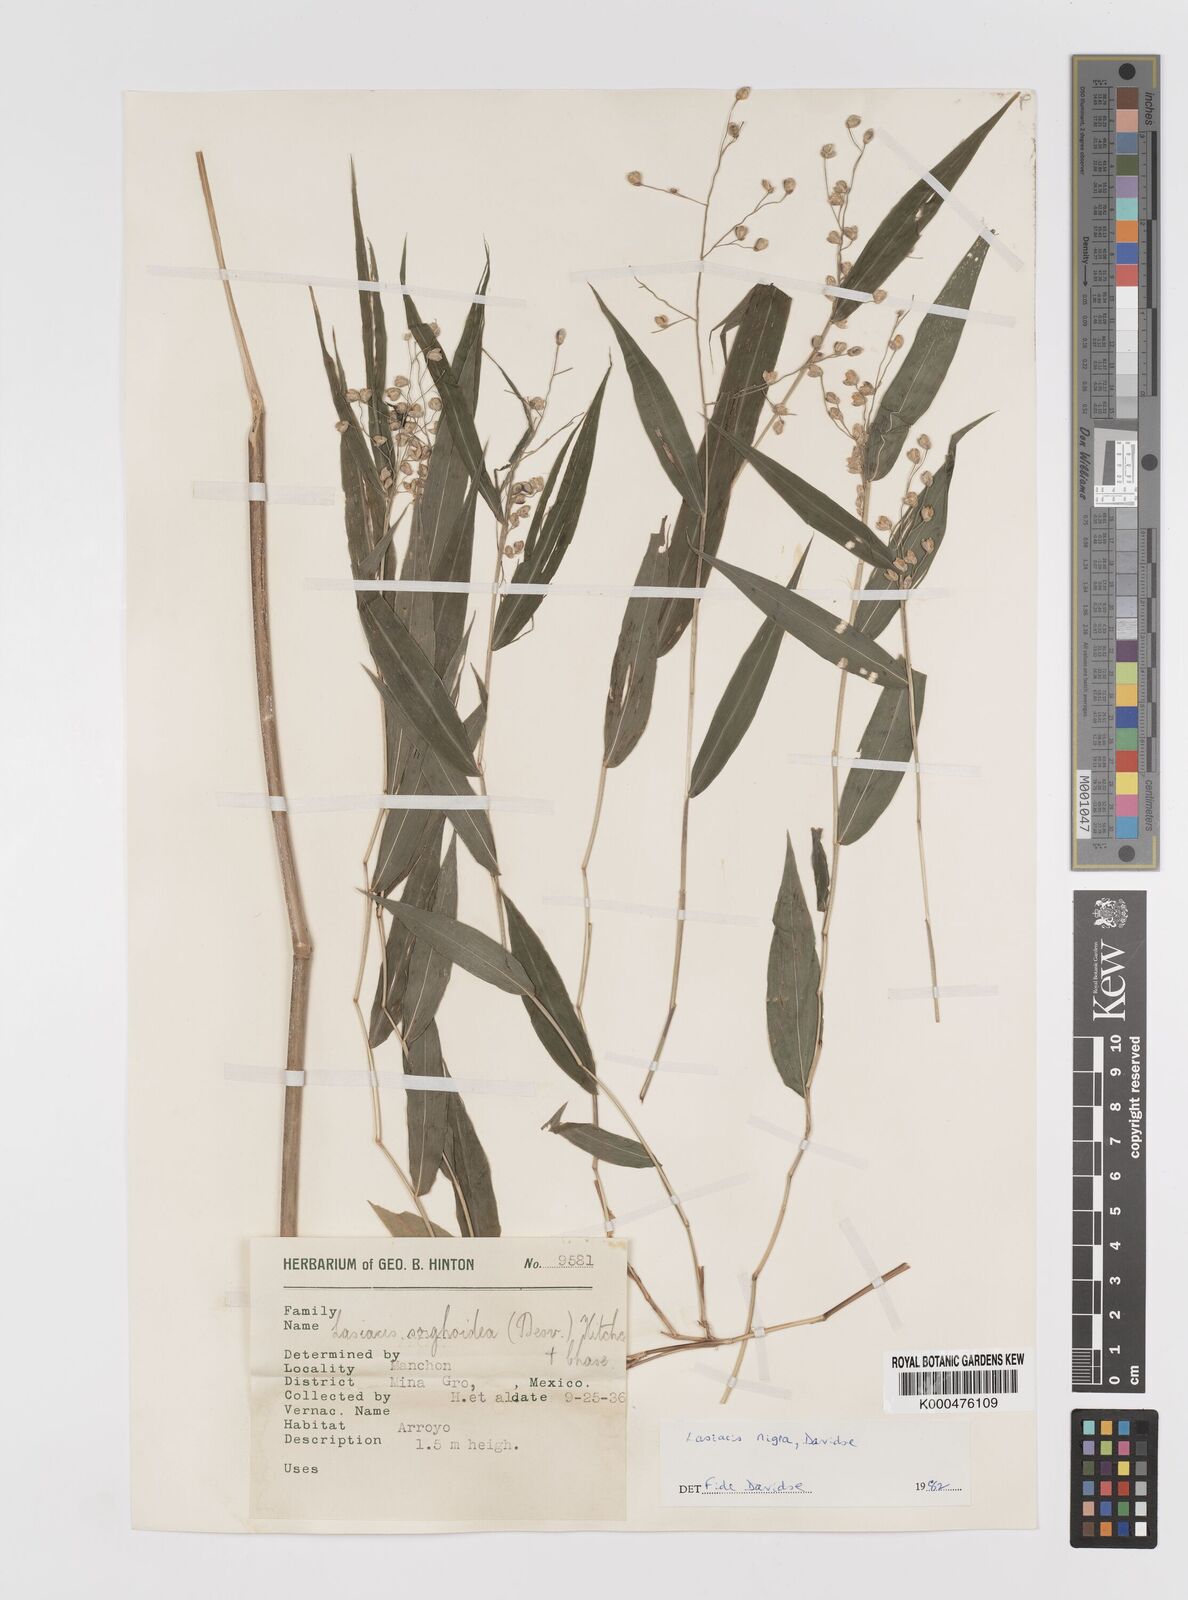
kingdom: Plantae
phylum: Tracheophyta
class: Liliopsida
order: Poales
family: Poaceae
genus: Lasiacis
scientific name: Lasiacis nigra
